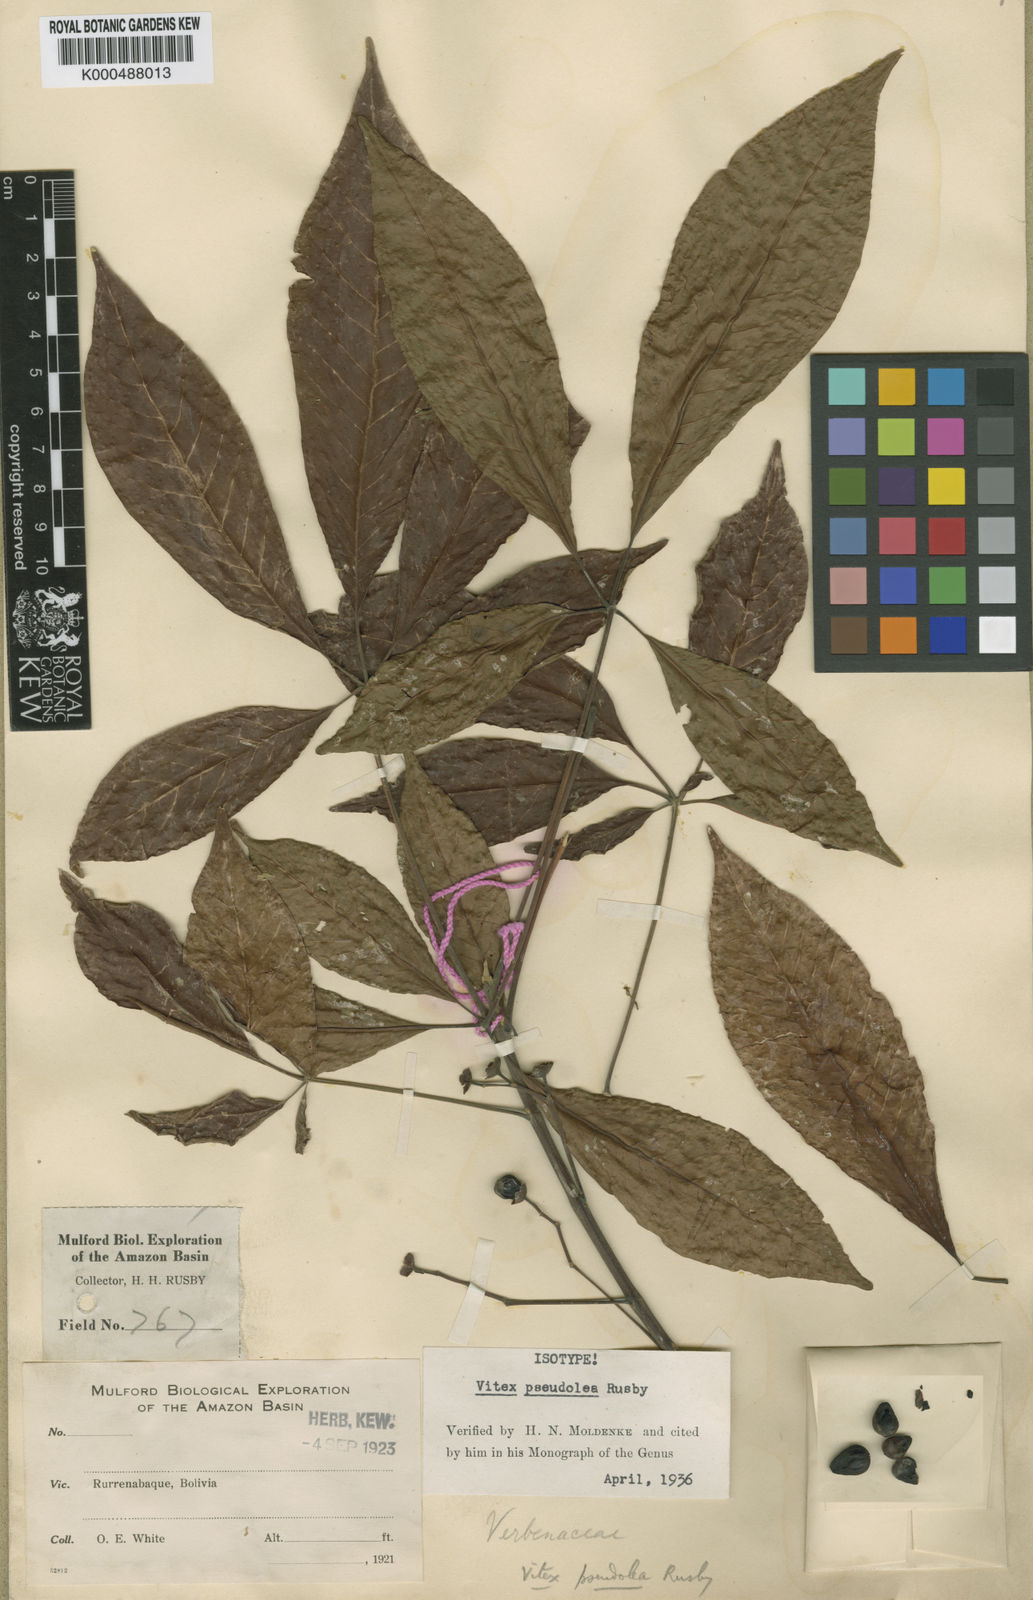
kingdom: Plantae
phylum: Tracheophyta
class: Magnoliopsida
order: Lamiales
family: Lamiaceae
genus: Vitex
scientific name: Vitex pseudolea
